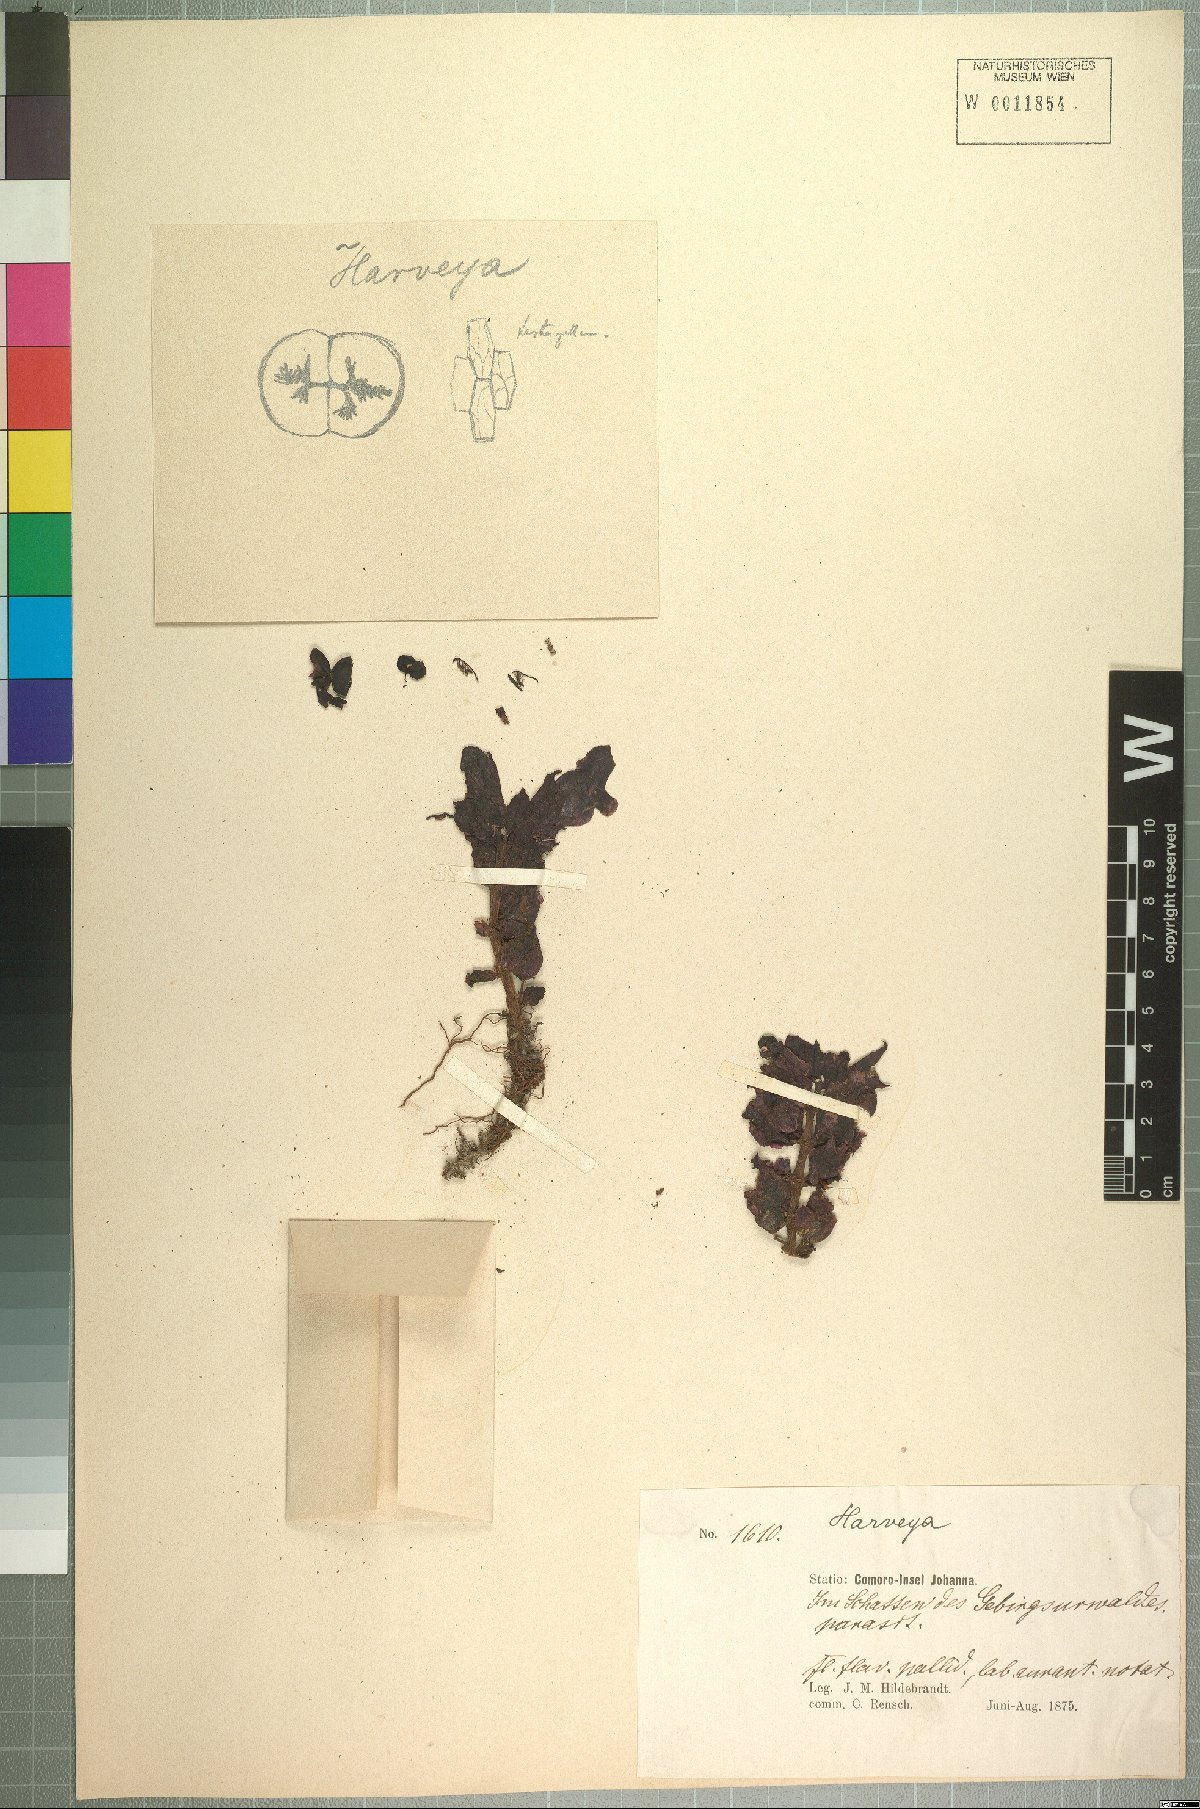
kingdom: Plantae
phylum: Tracheophyta
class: Magnoliopsida
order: Lamiales
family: Orobanchaceae
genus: Harveya
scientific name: Harveya comorensis
